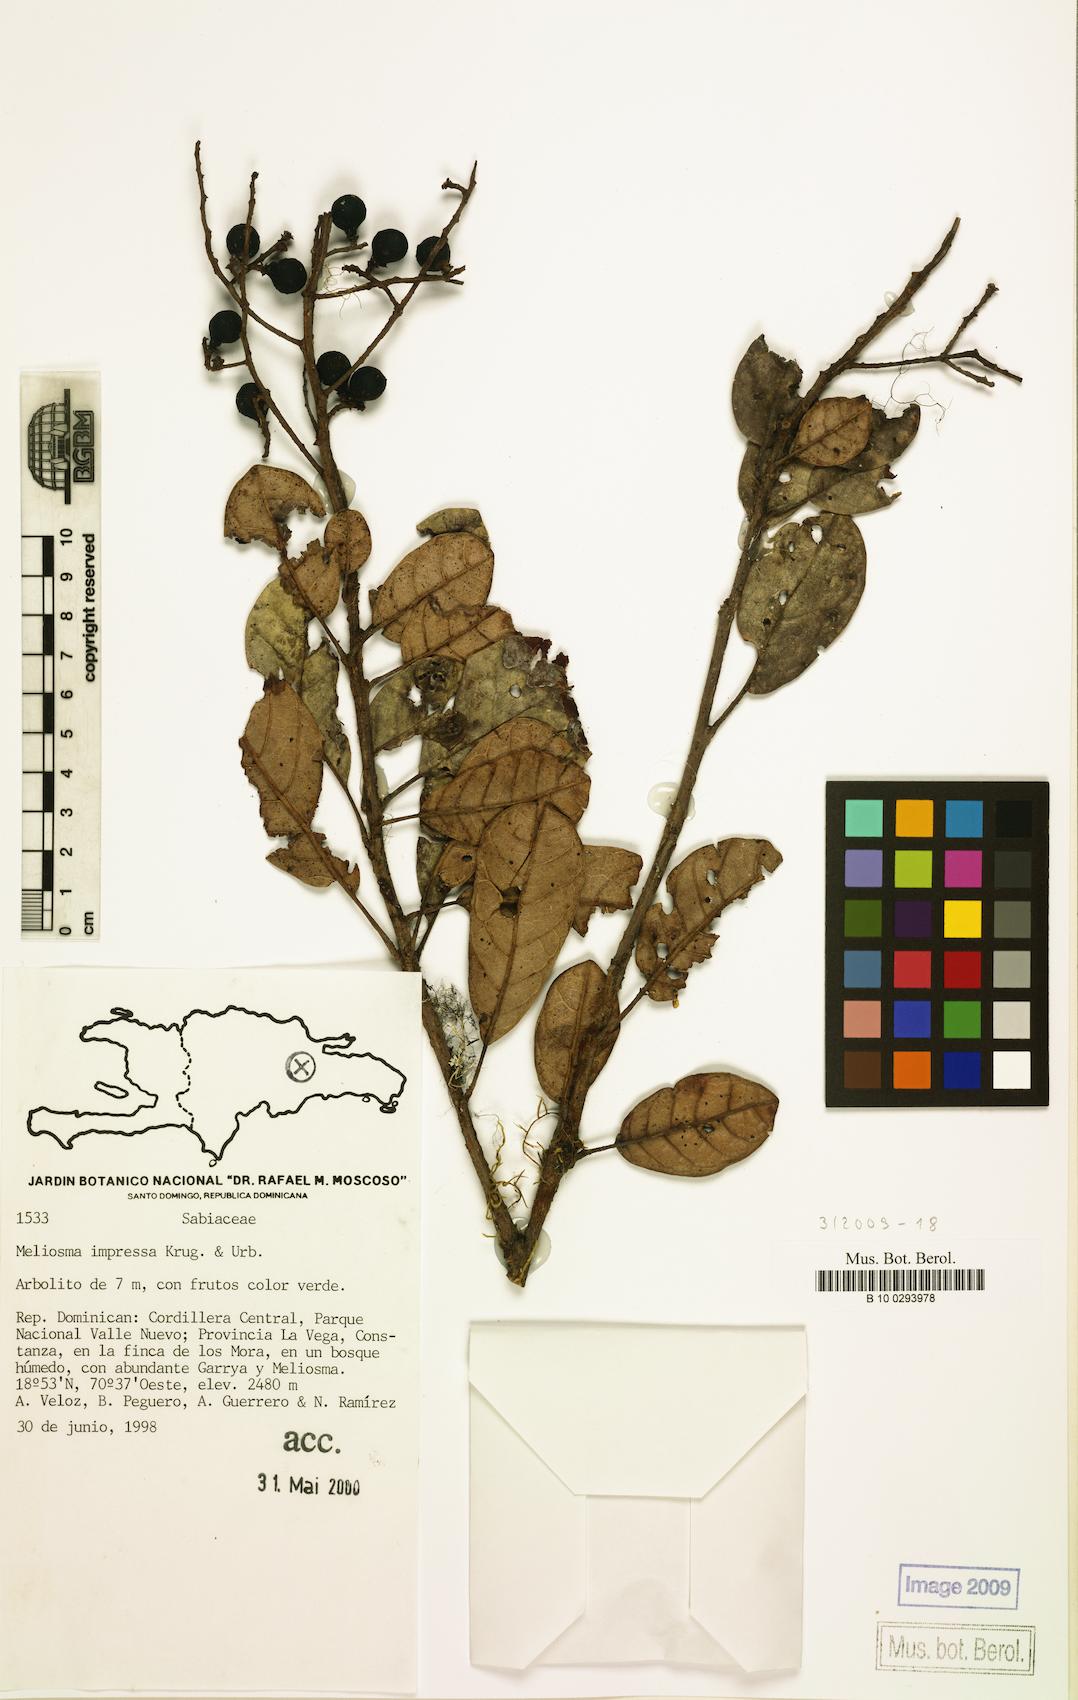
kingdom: Plantae
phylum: Tracheophyta
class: Magnoliopsida
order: Proteales
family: Sabiaceae
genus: Meliosma
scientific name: Meliosma impressa
